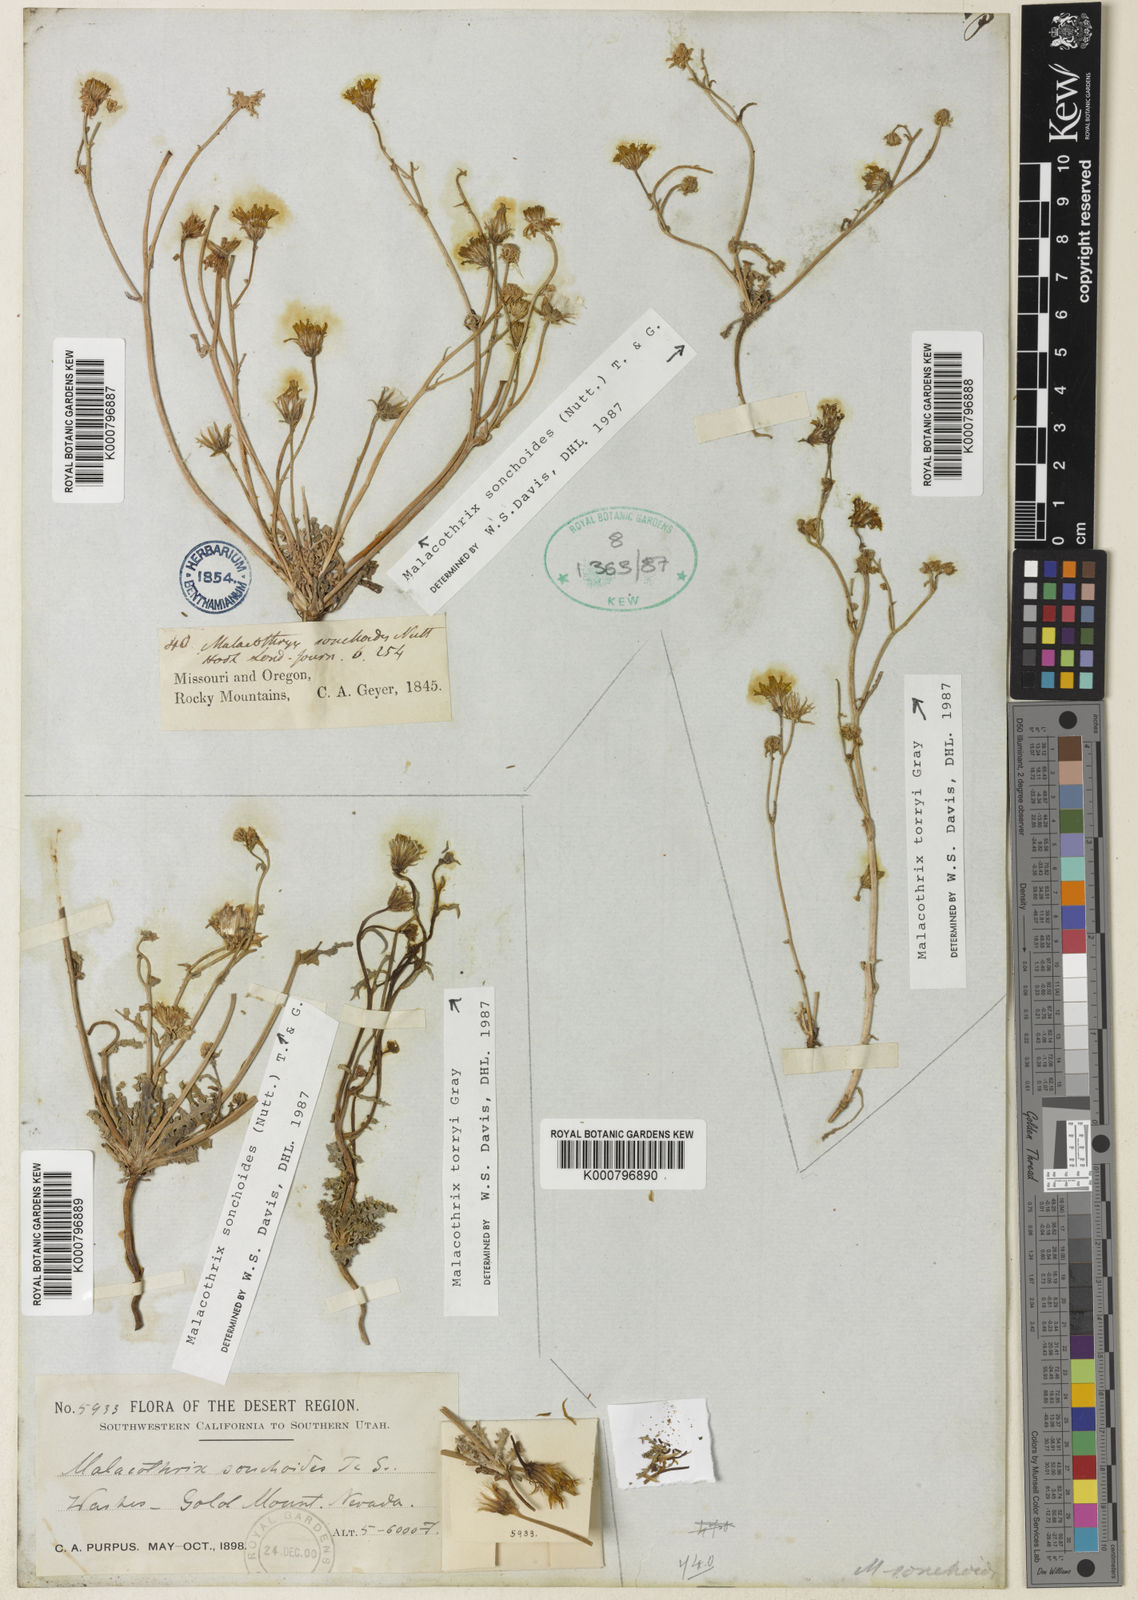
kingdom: Plantae
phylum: Tracheophyta
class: Magnoliopsida
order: Asterales
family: Asteraceae
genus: Malacothrix
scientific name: Malacothrix torreyi
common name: Torrey's desert-dandelion
